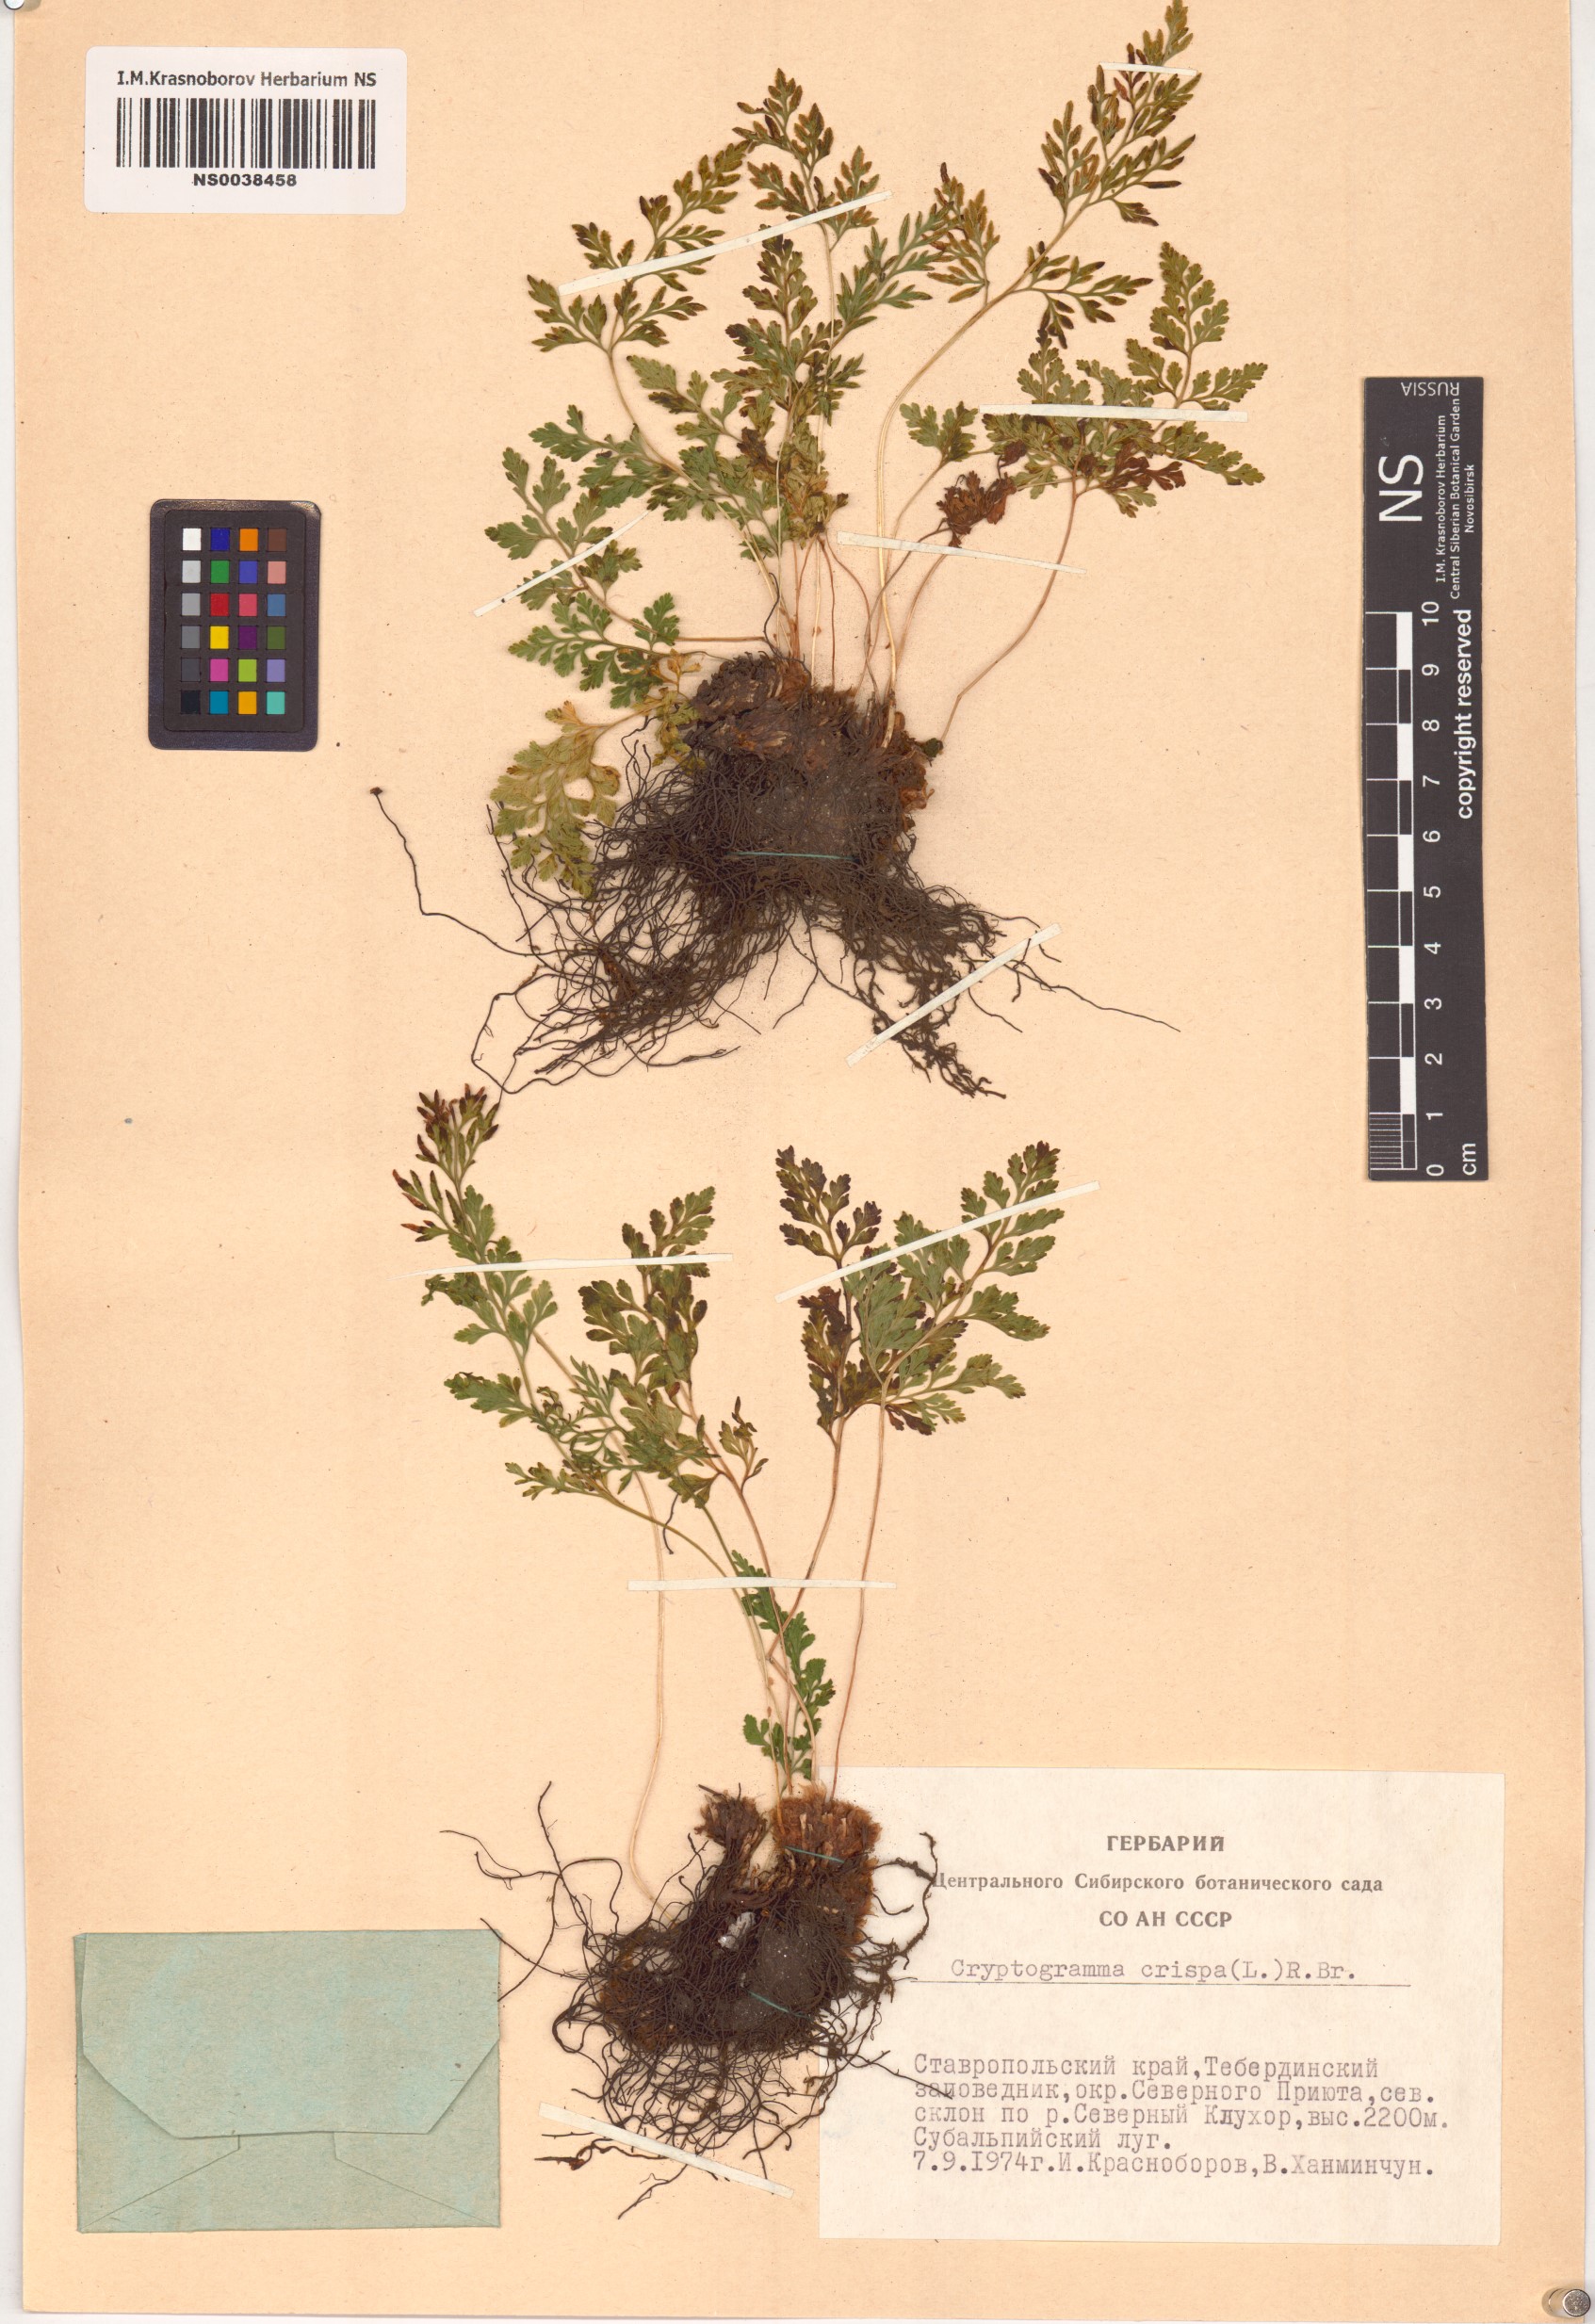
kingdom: Plantae
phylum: Tracheophyta
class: Polypodiopsida
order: Polypodiales
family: Pteridaceae
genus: Cryptogramma
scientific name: Cryptogramma crispa
